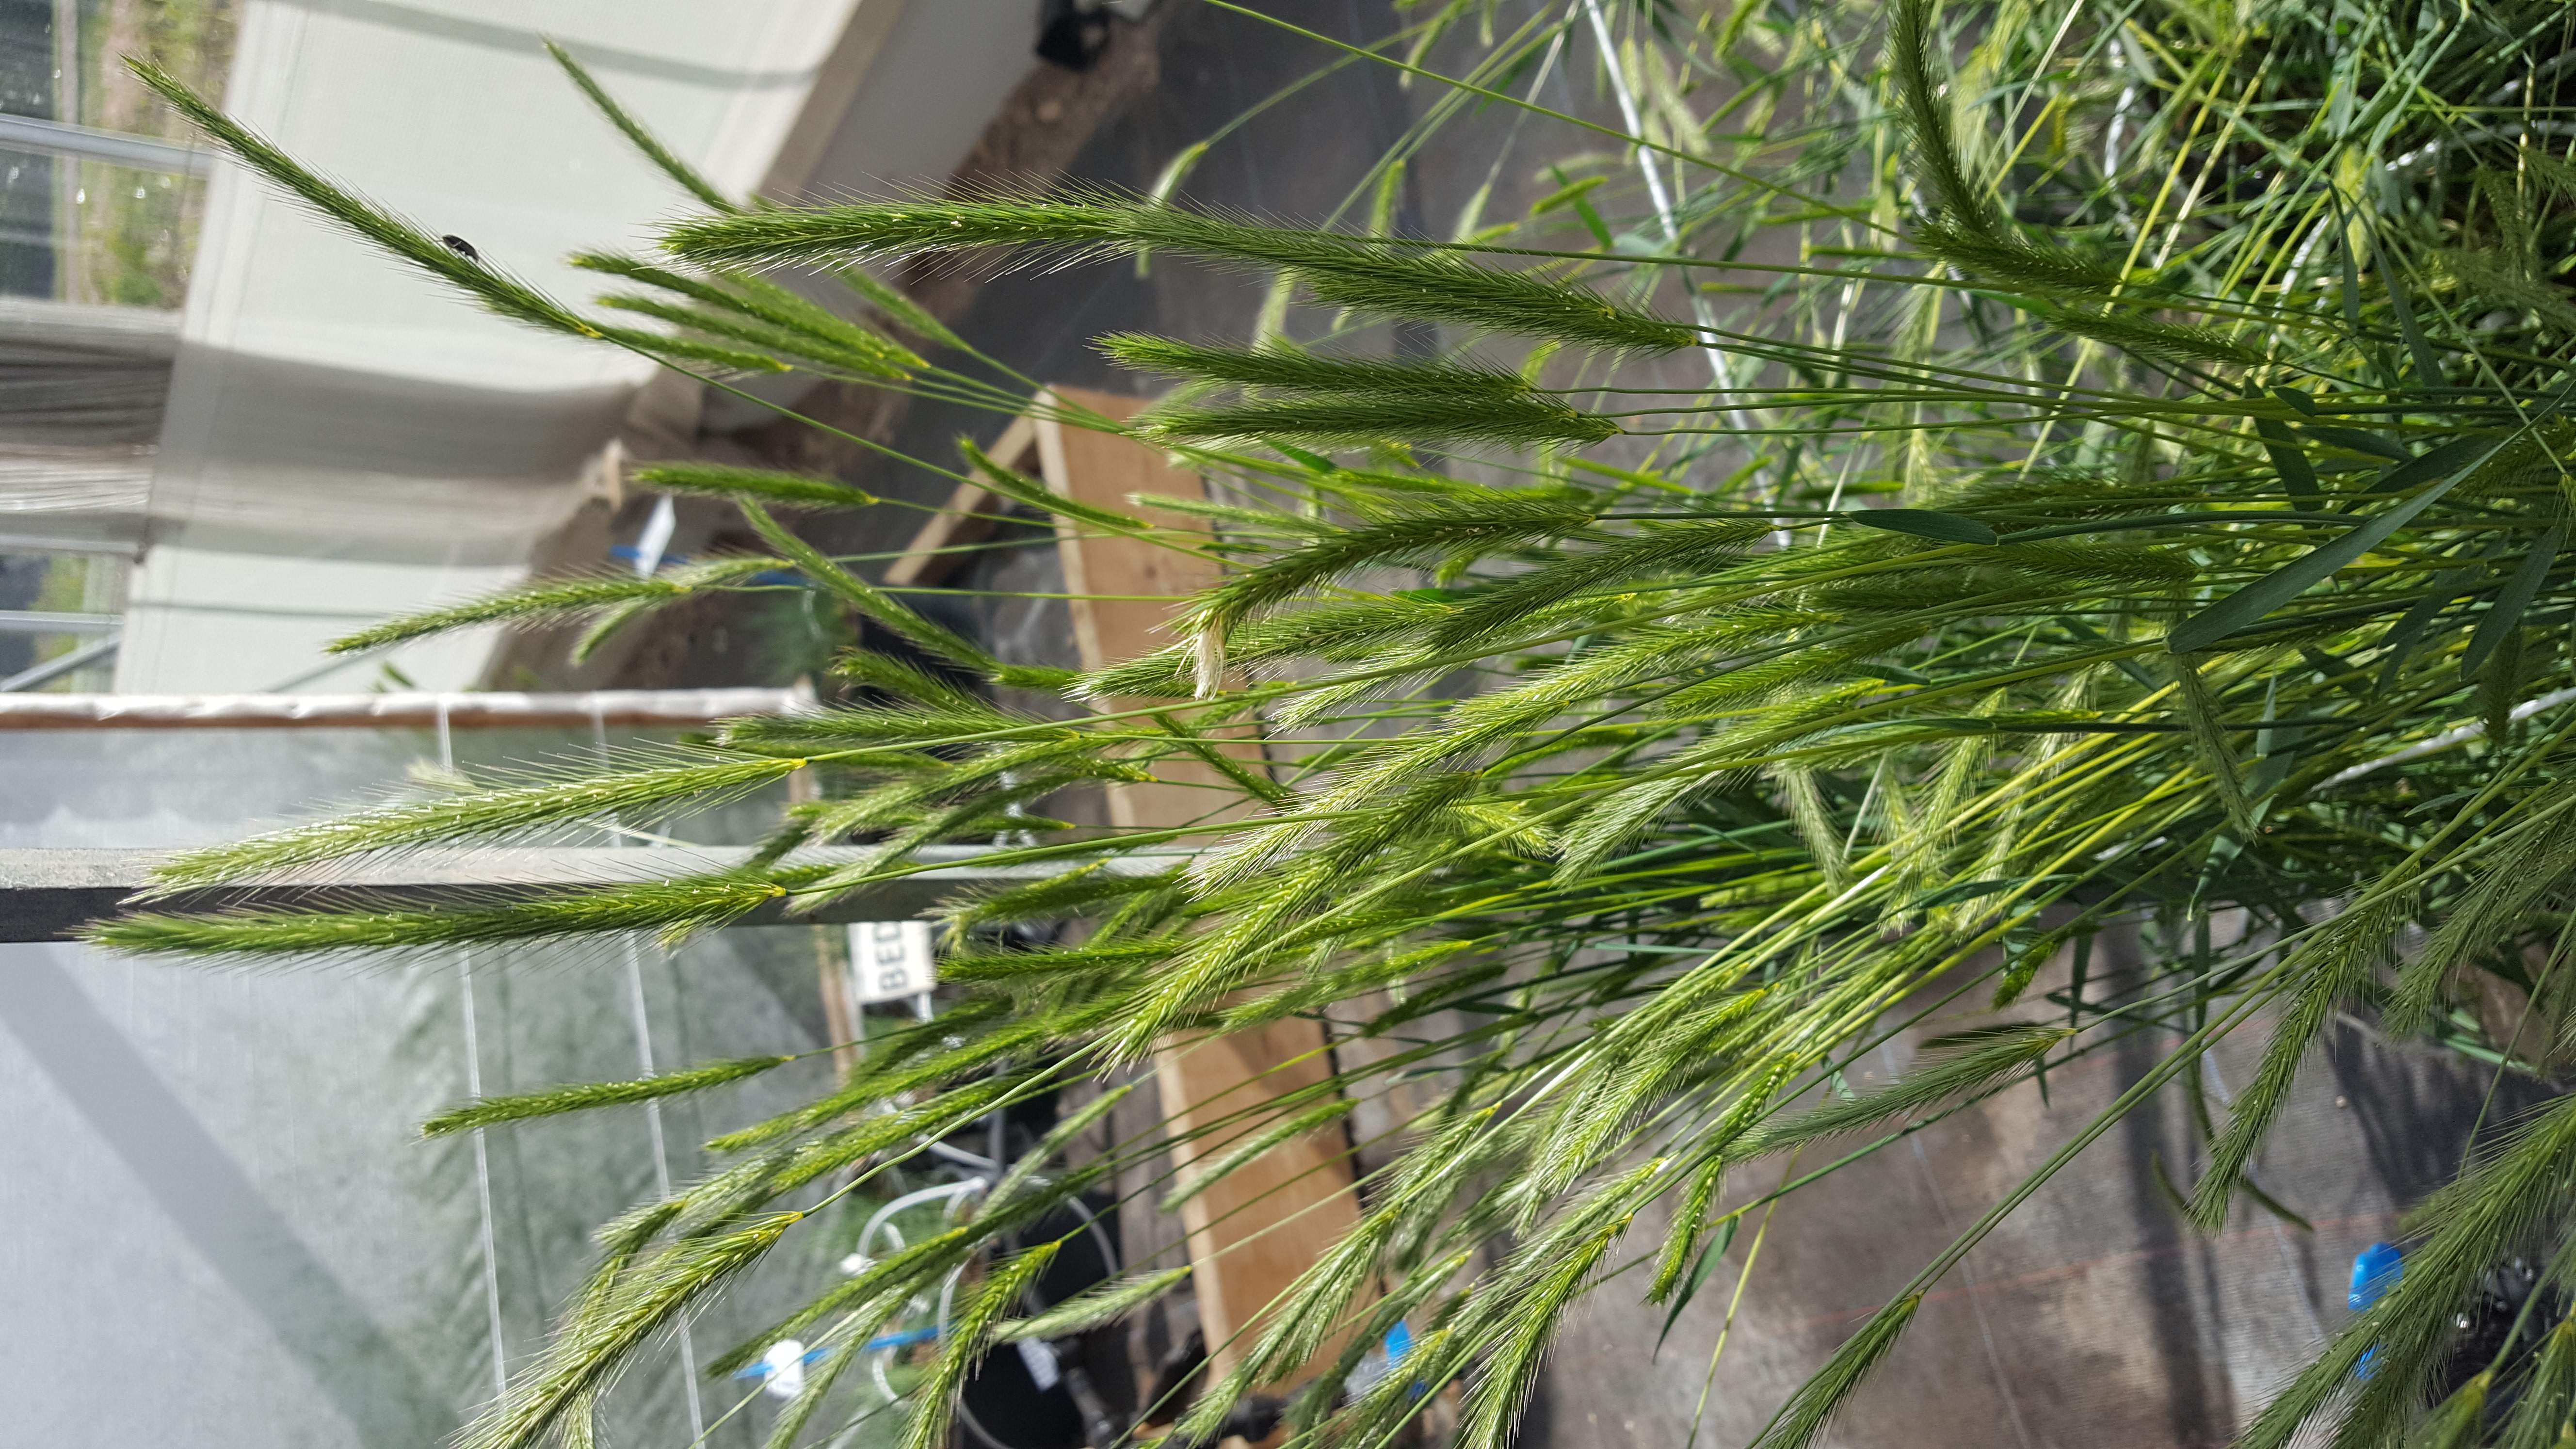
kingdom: Plantae
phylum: Tracheophyta
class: Liliopsida
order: Poales
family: Poaceae
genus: Hordeum
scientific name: Hordeum depressum
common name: Low barley
